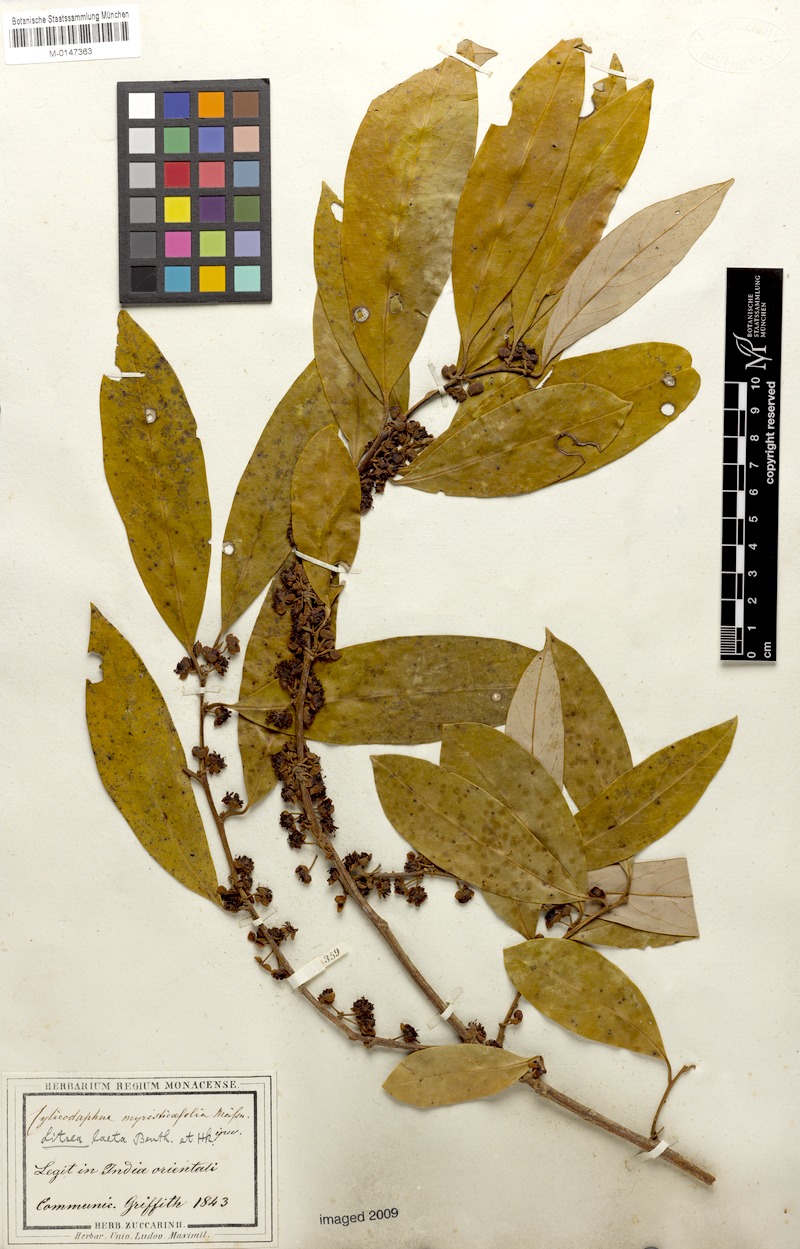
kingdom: Plantae
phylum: Tracheophyta
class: Magnoliopsida
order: Laurales
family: Lauraceae
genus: Litsea
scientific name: Litsea laeta
